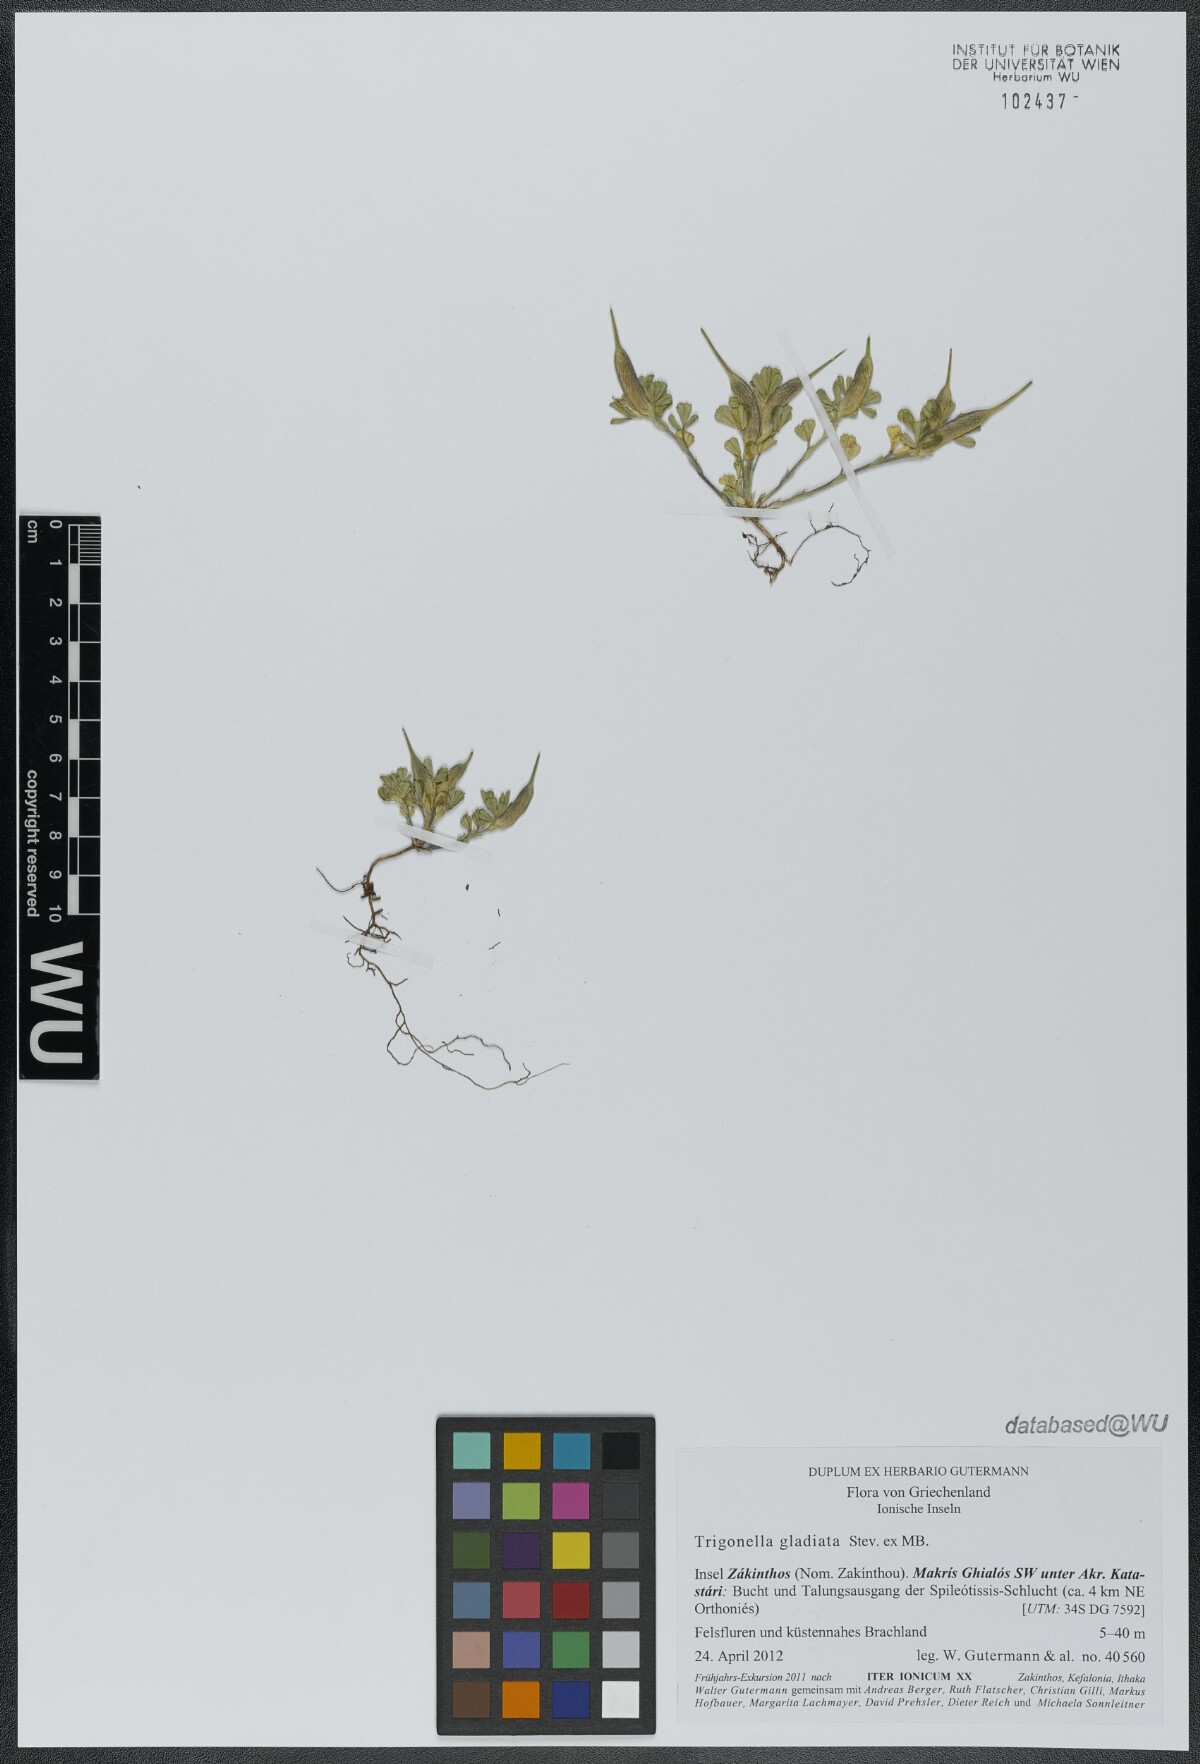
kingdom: Plantae
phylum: Tracheophyta
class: Magnoliopsida
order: Fabales
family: Fabaceae
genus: Trigonella
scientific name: Trigonella gladiata
